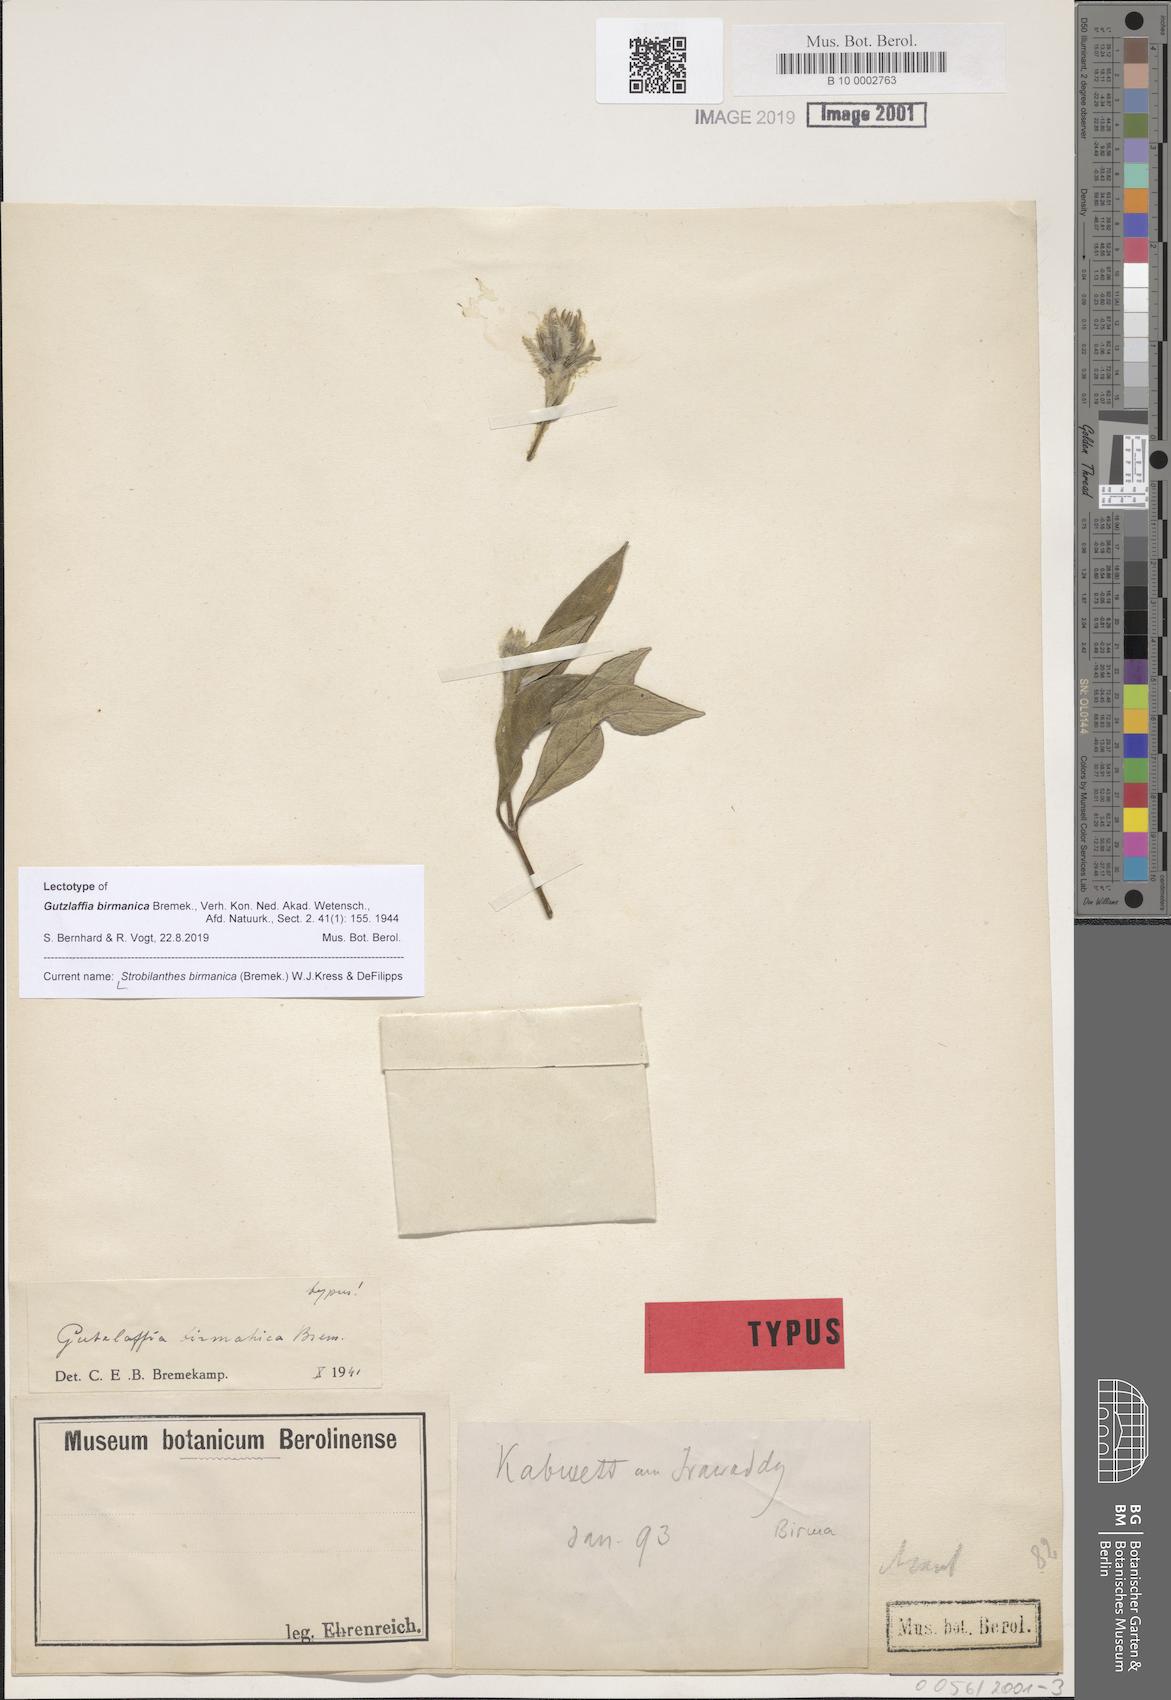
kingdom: Plantae
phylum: Tracheophyta
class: Magnoliopsida
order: Lamiales
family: Acanthaceae
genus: Strobilanthes
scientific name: Strobilanthes rosea
